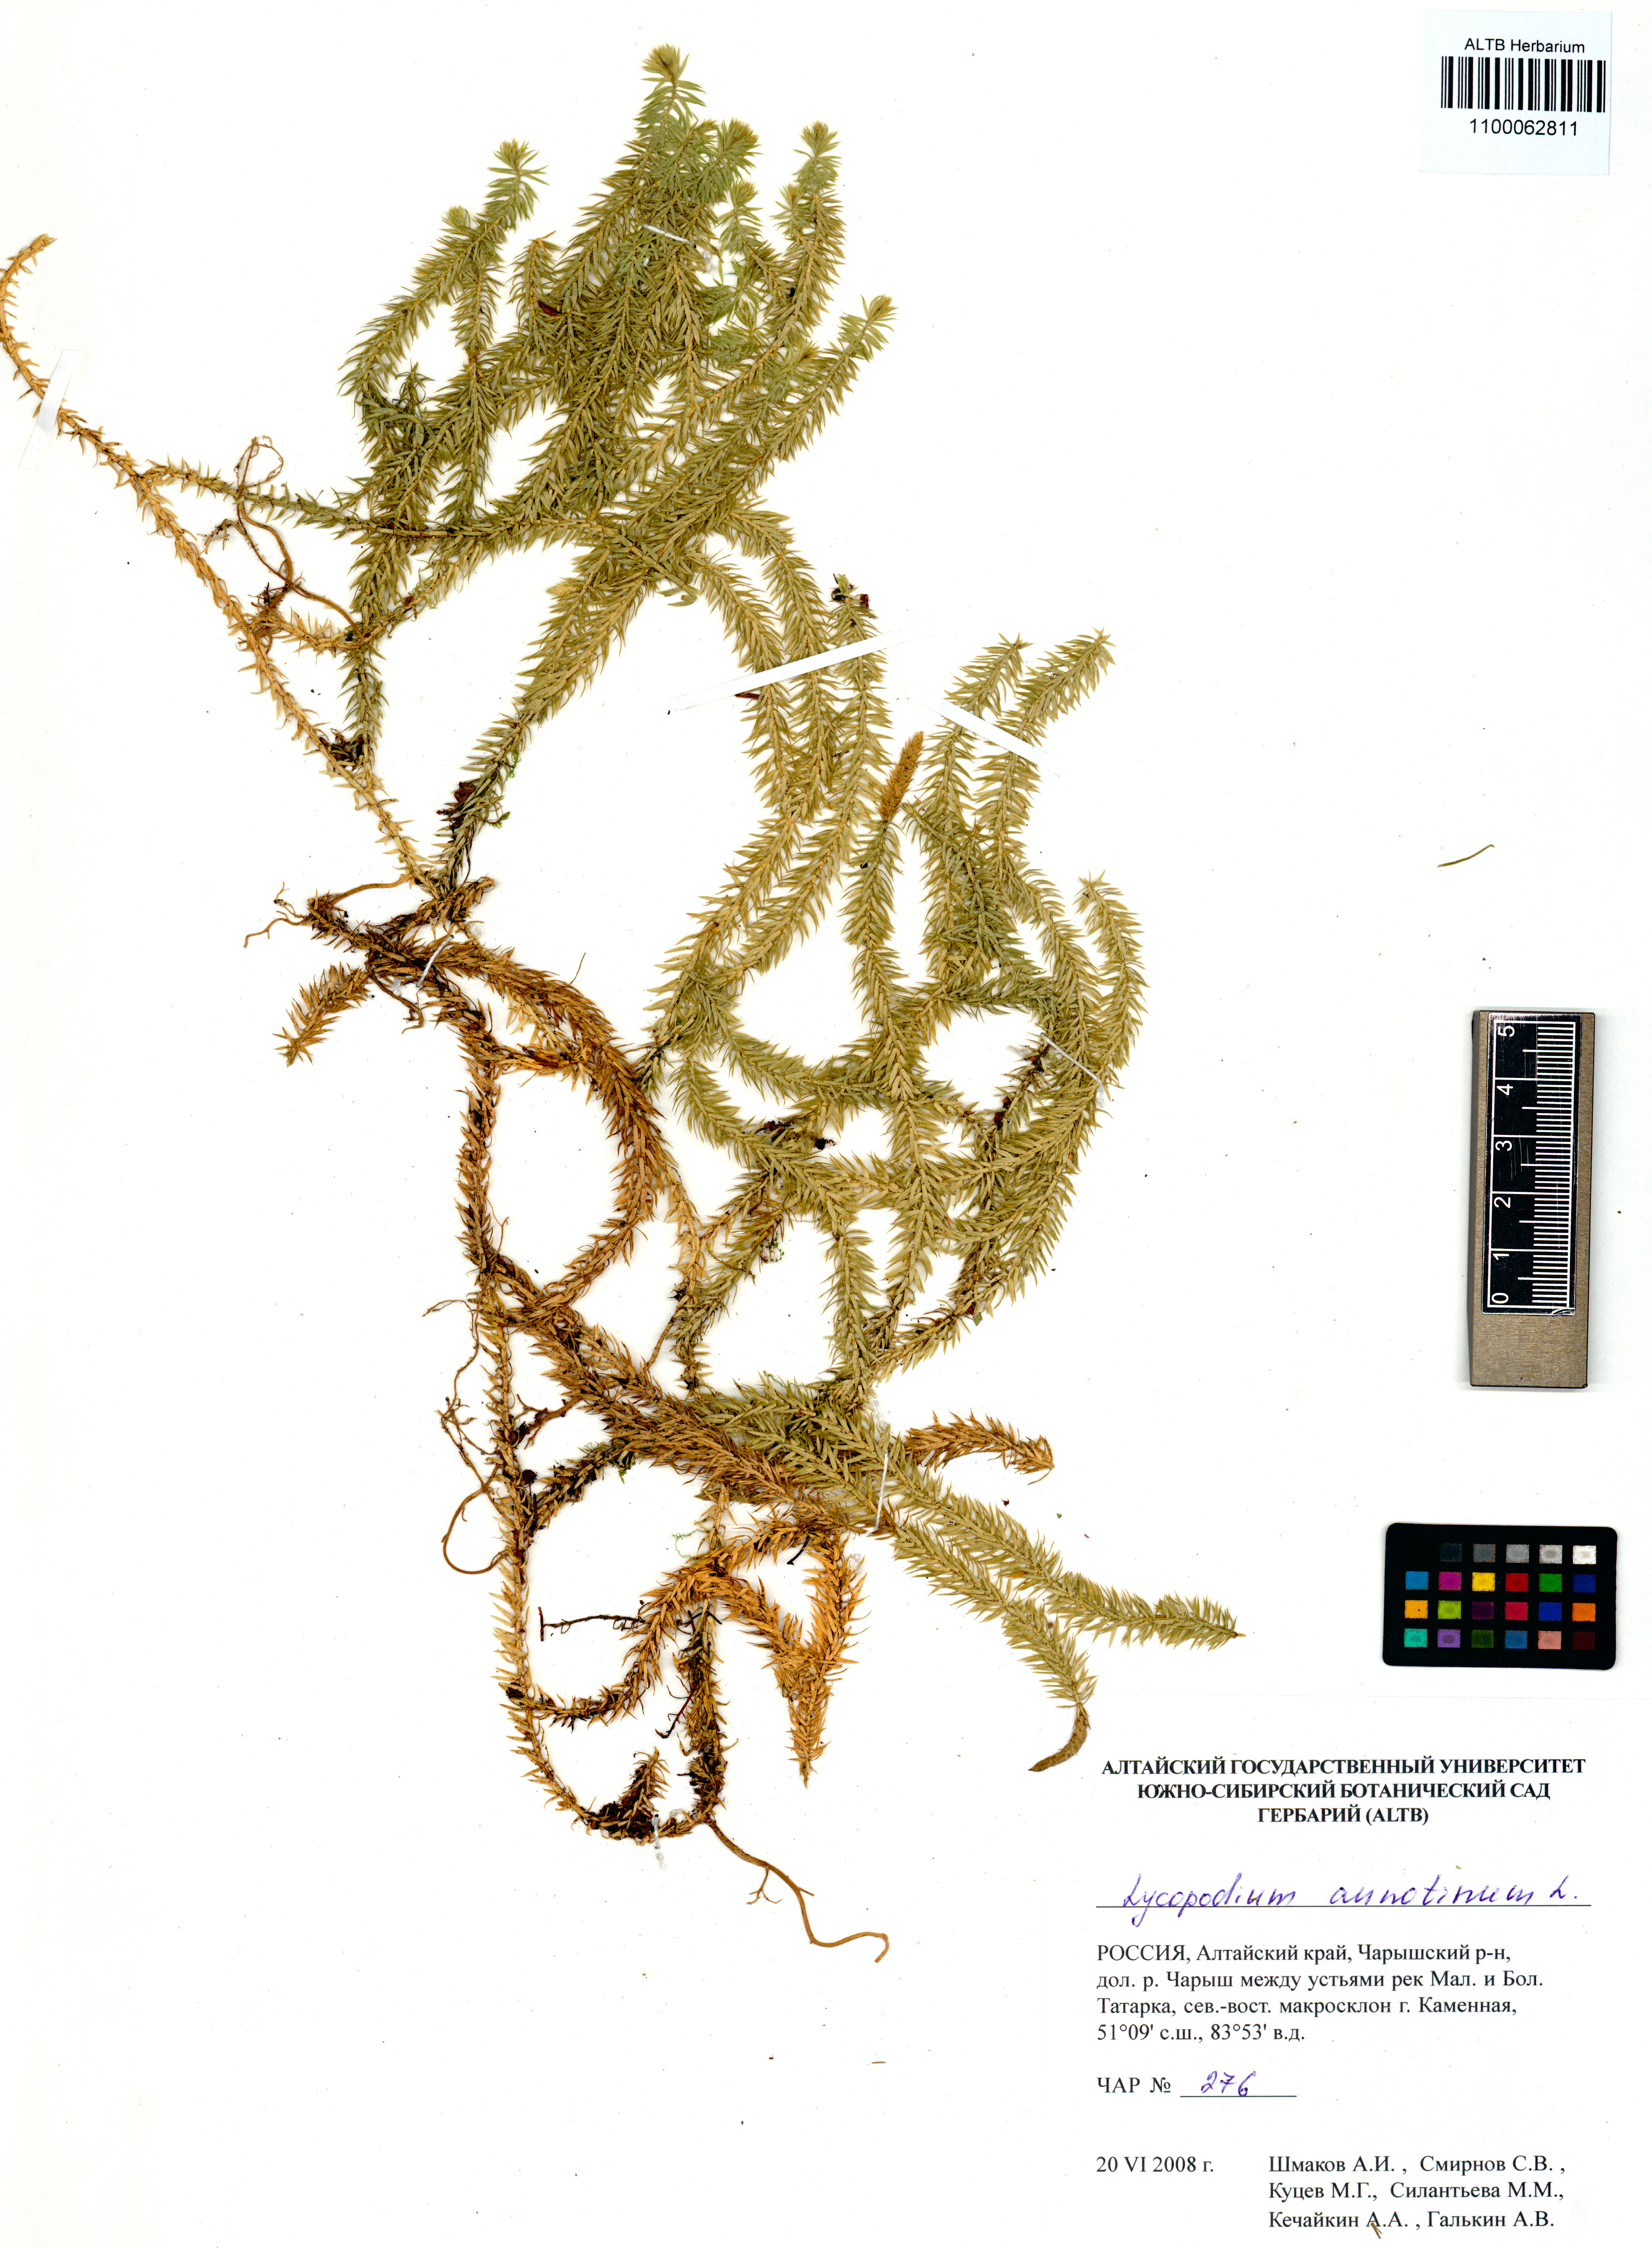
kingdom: Plantae
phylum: Tracheophyta
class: Lycopodiopsida
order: Lycopodiales
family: Lycopodiaceae
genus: Spinulum
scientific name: Spinulum annotinum
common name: Interrupted club-moss
